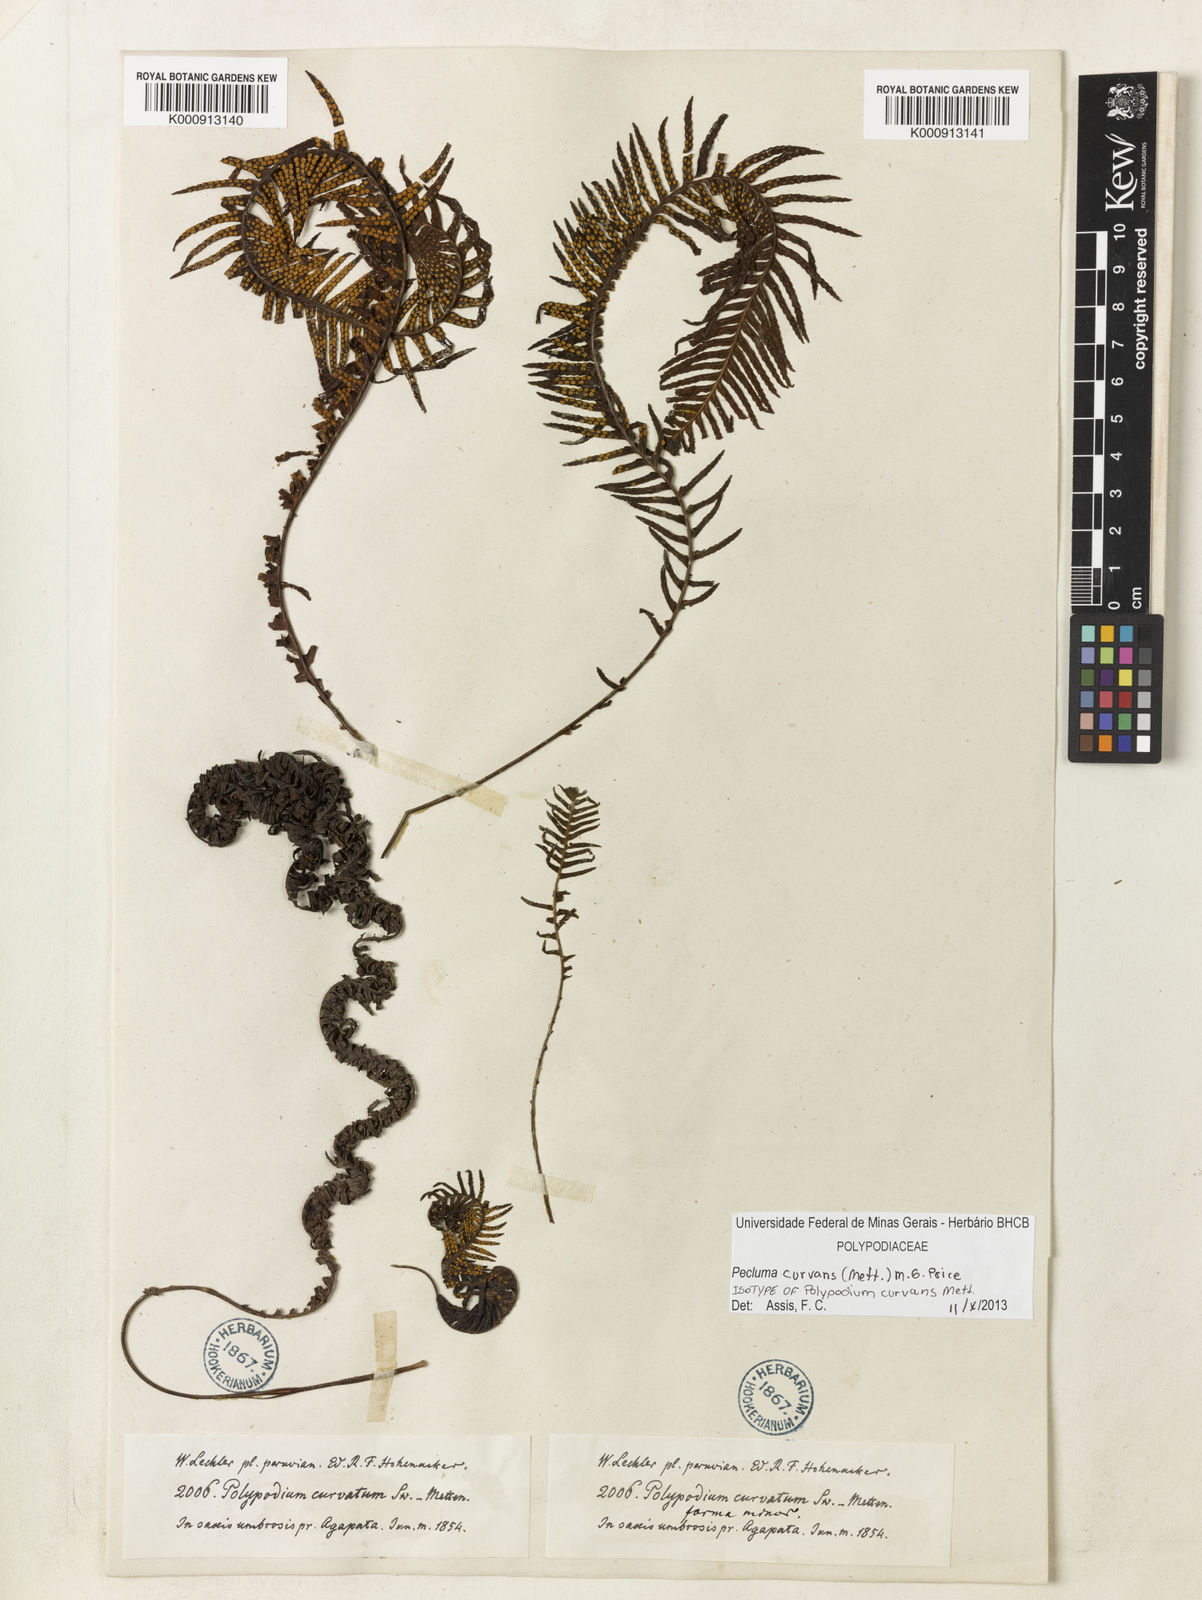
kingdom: Plantae
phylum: Tracheophyta
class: Polypodiopsida
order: Polypodiales
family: Polypodiaceae
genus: Pecluma
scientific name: Pecluma curvans
